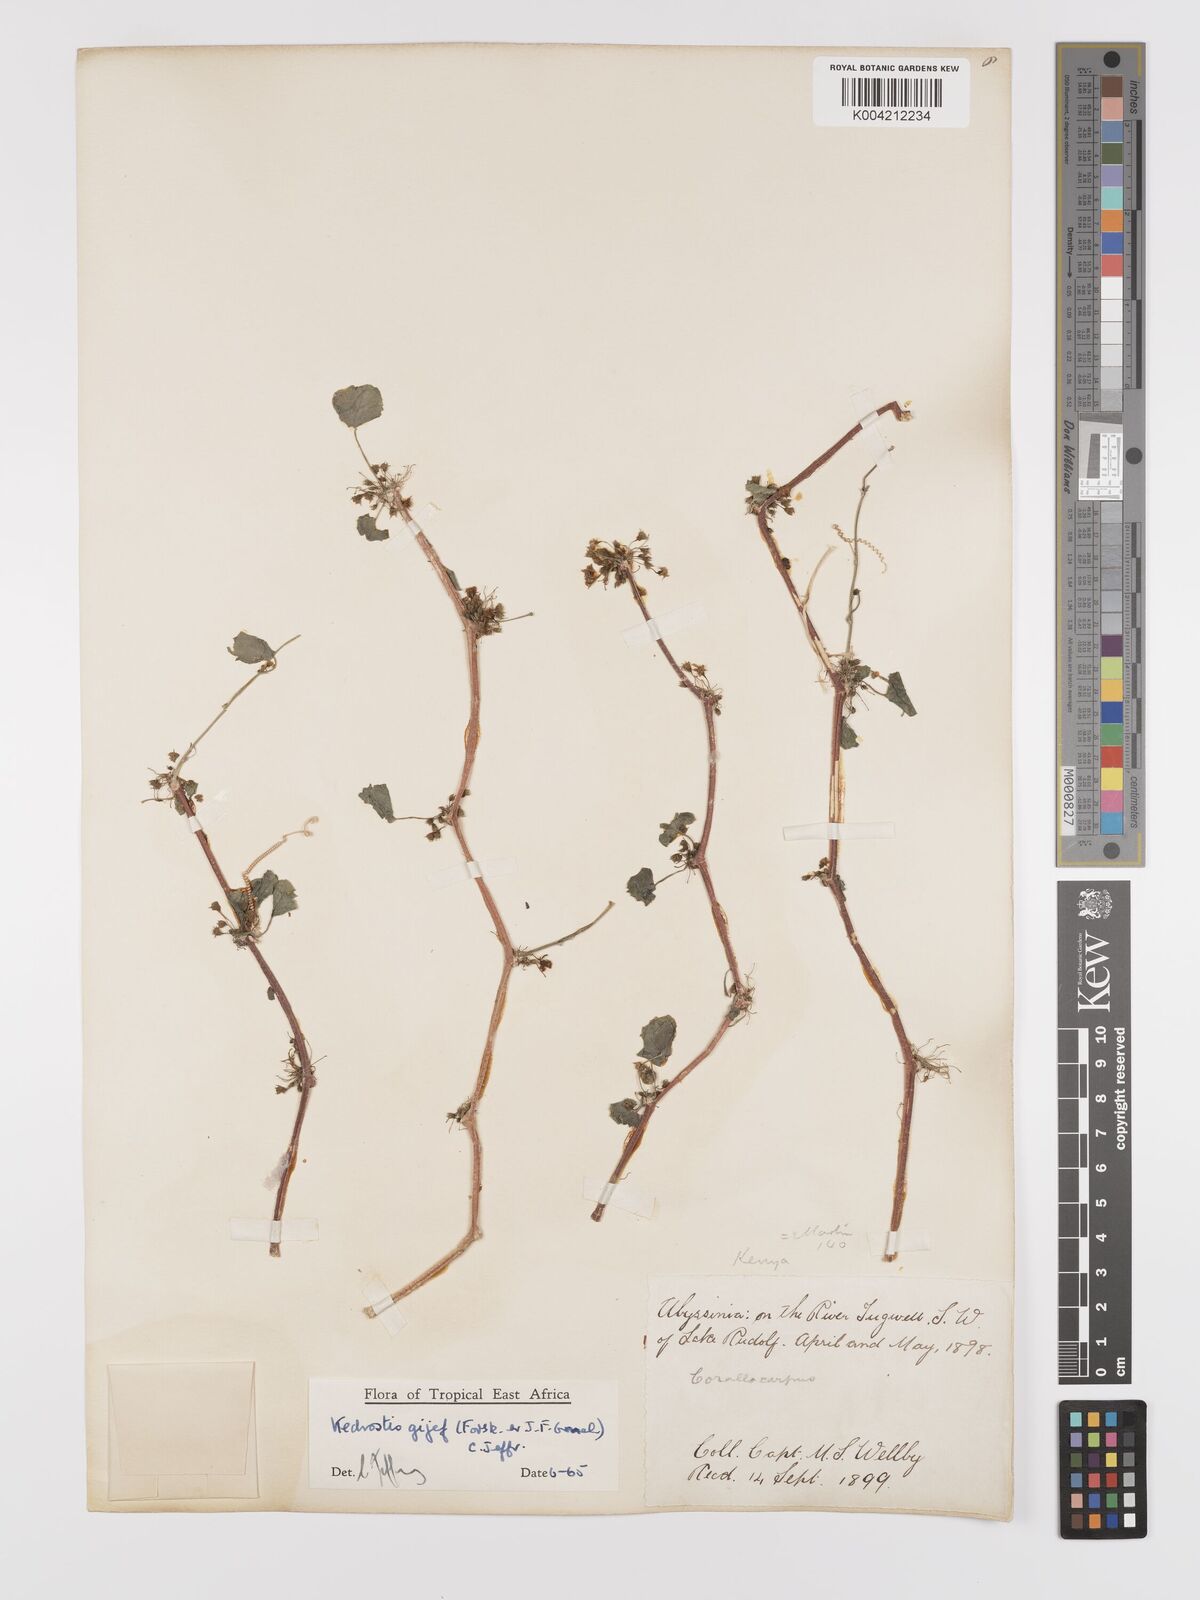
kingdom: Plantae
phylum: Tracheophyta
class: Magnoliopsida
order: Cucurbitales
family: Cucurbitaceae
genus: Kedrostis
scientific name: Kedrostis gijef
